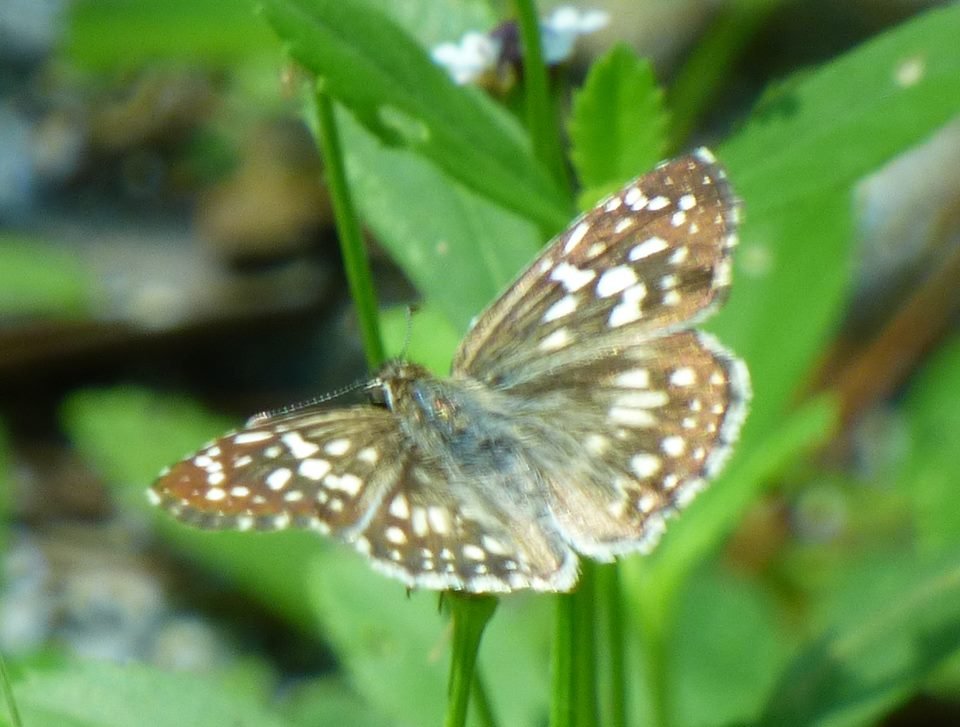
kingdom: Animalia
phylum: Arthropoda
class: Insecta
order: Lepidoptera
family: Hesperiidae
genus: Pyrgus
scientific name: Pyrgus communis
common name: White Checkered-Skipper
